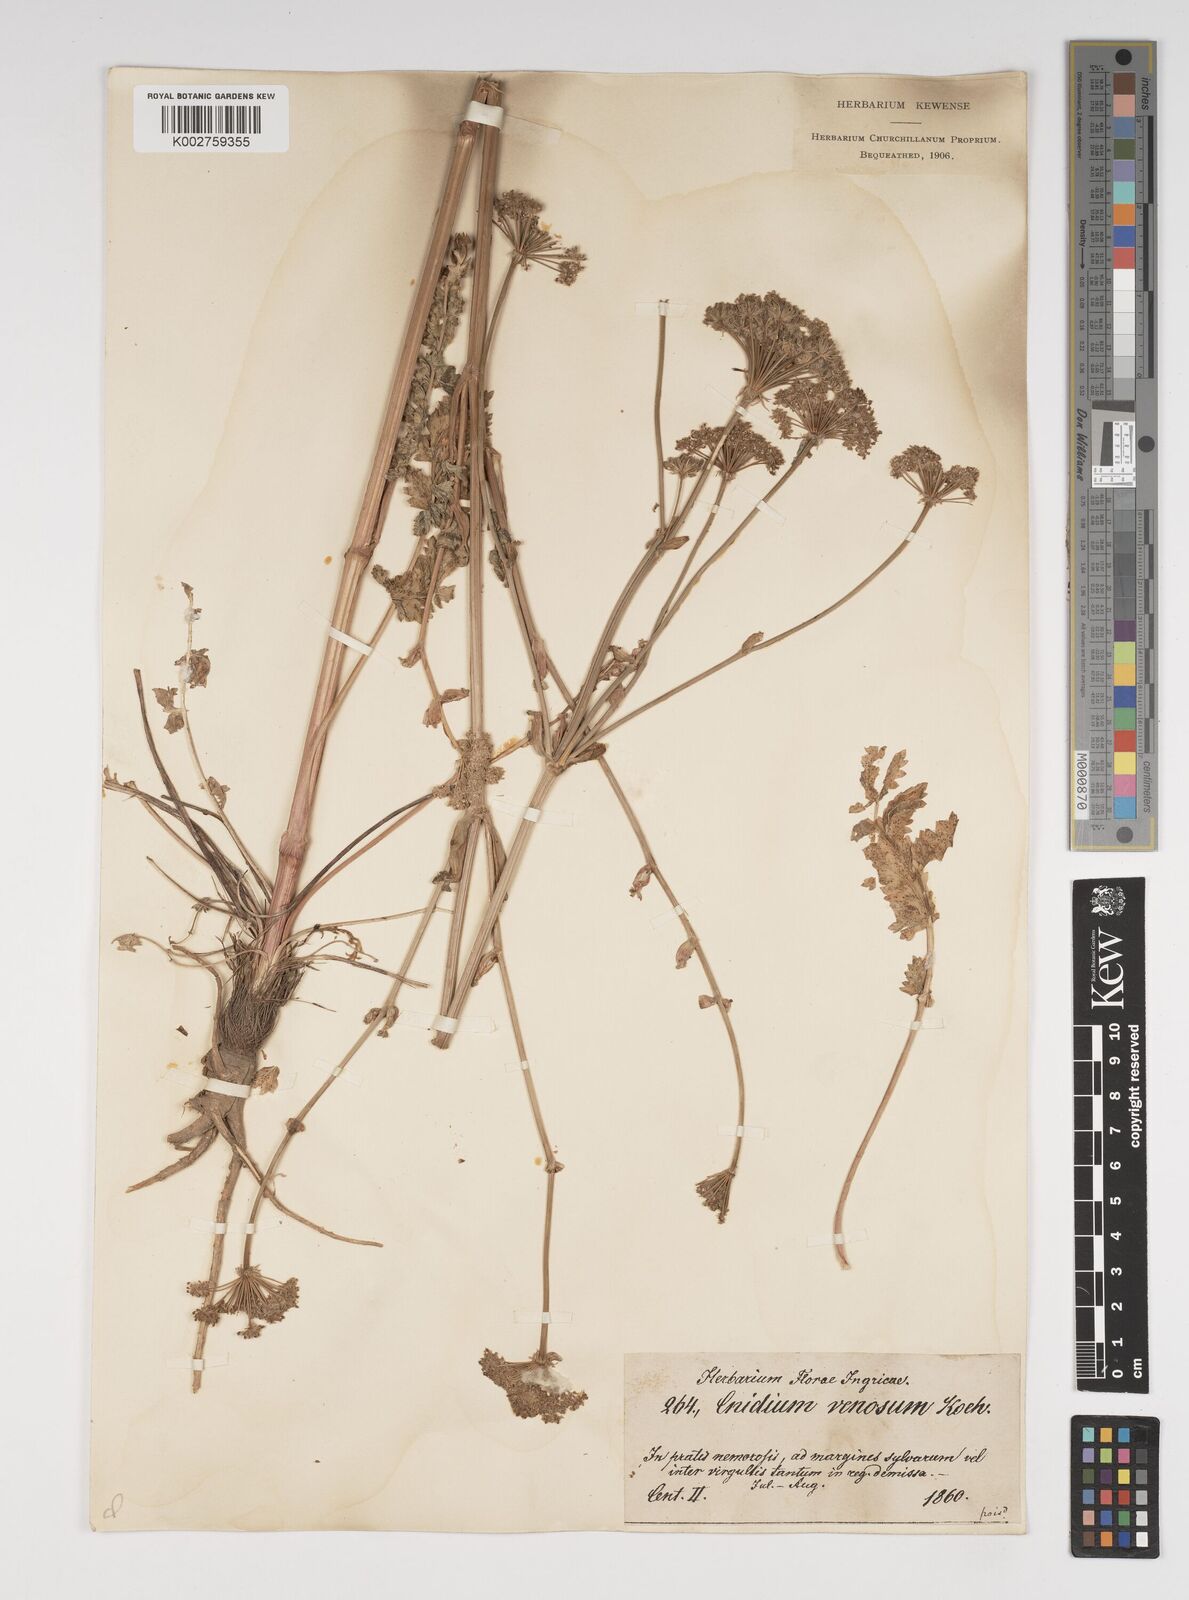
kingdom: Plantae
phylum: Tracheophyta
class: Magnoliopsida
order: Apiales
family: Apiaceae
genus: Kadenia
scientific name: Kadenia dubia
